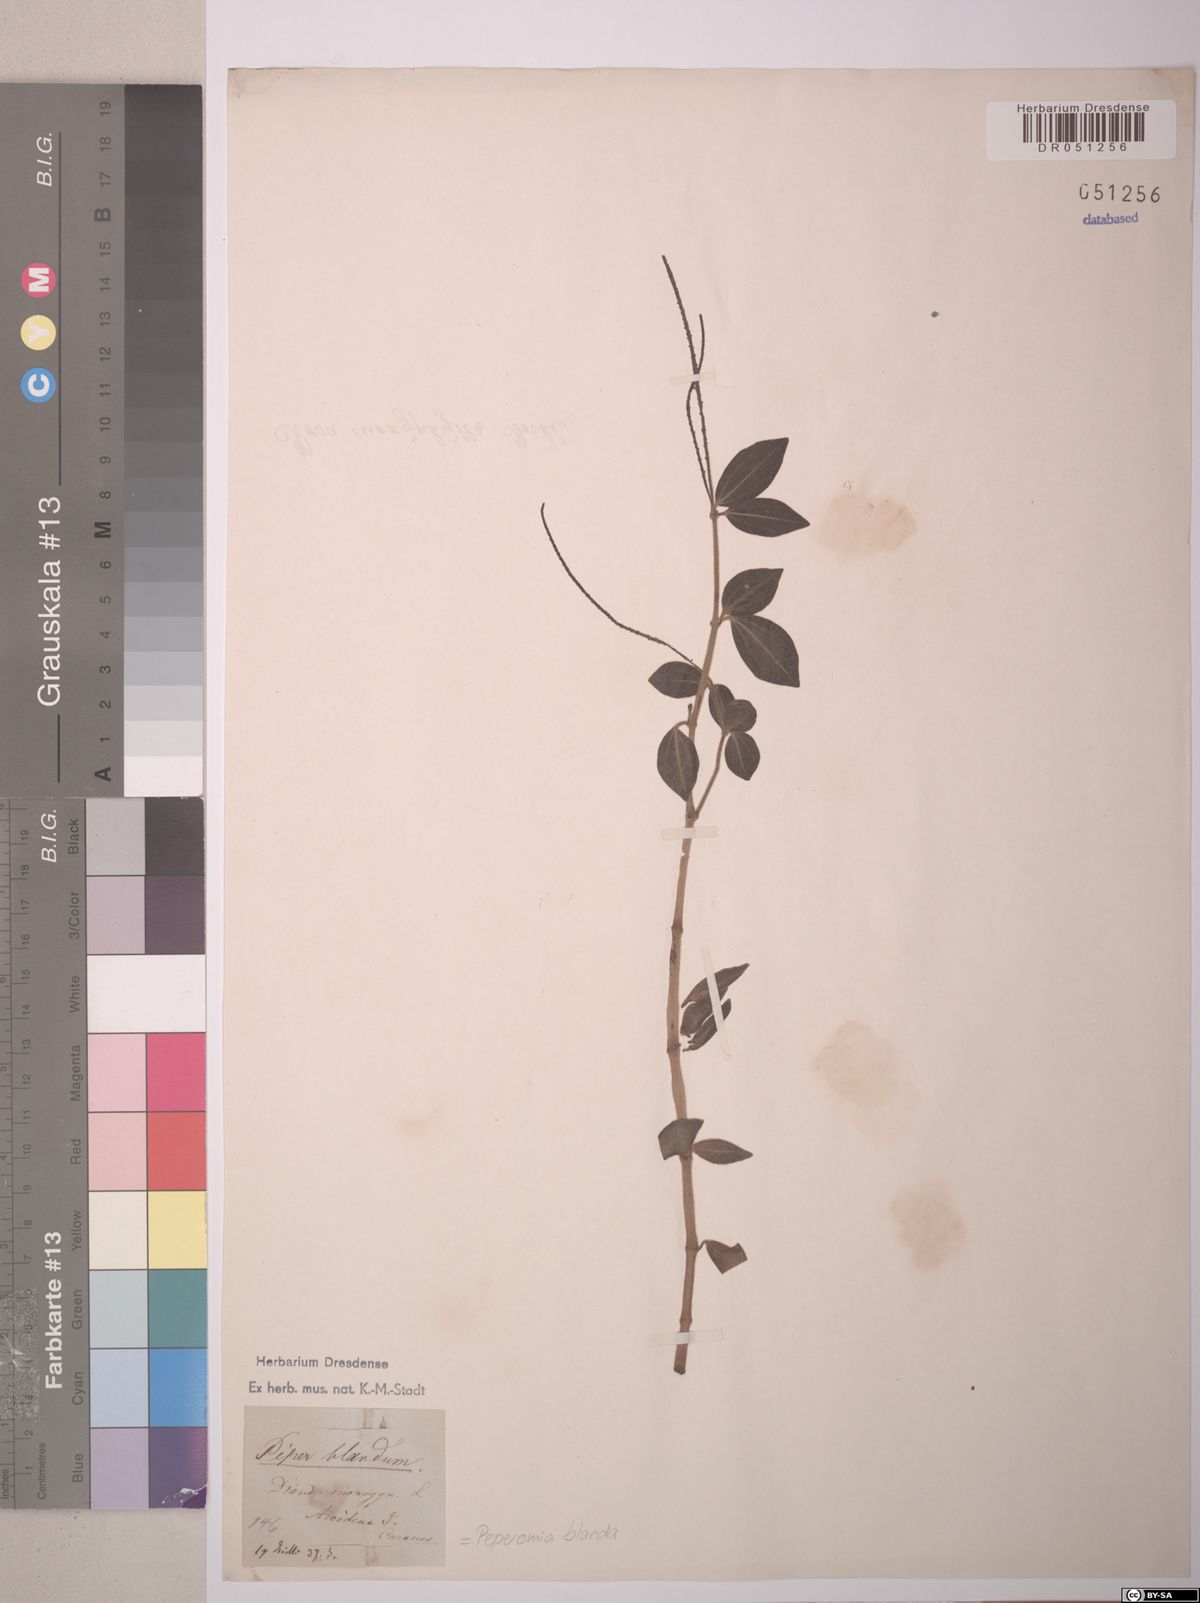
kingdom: Plantae
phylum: Tracheophyta
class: Magnoliopsida
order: Piperales
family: Piperaceae
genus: Peperomia
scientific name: Peperomia blanda
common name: Arid-land peperomia
